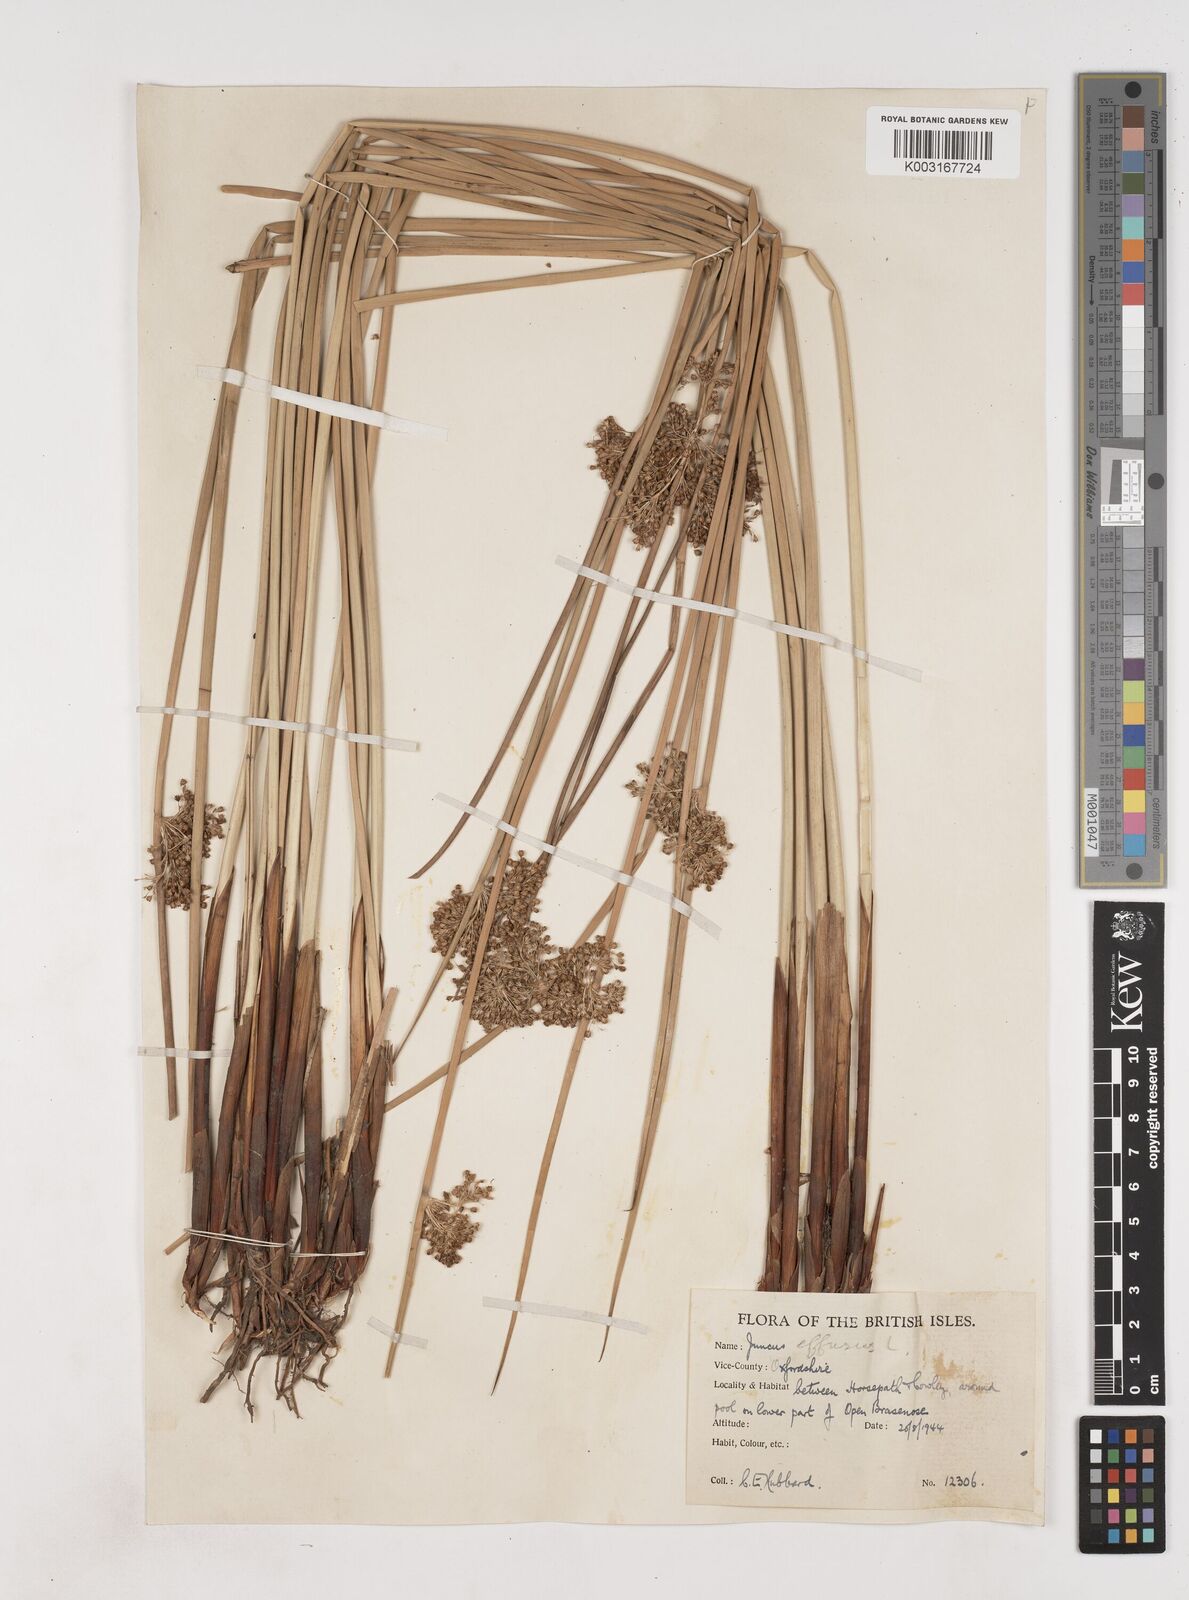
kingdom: Plantae
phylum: Tracheophyta
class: Liliopsida
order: Poales
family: Juncaceae
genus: Juncus
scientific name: Juncus effusus
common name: Soft rush
